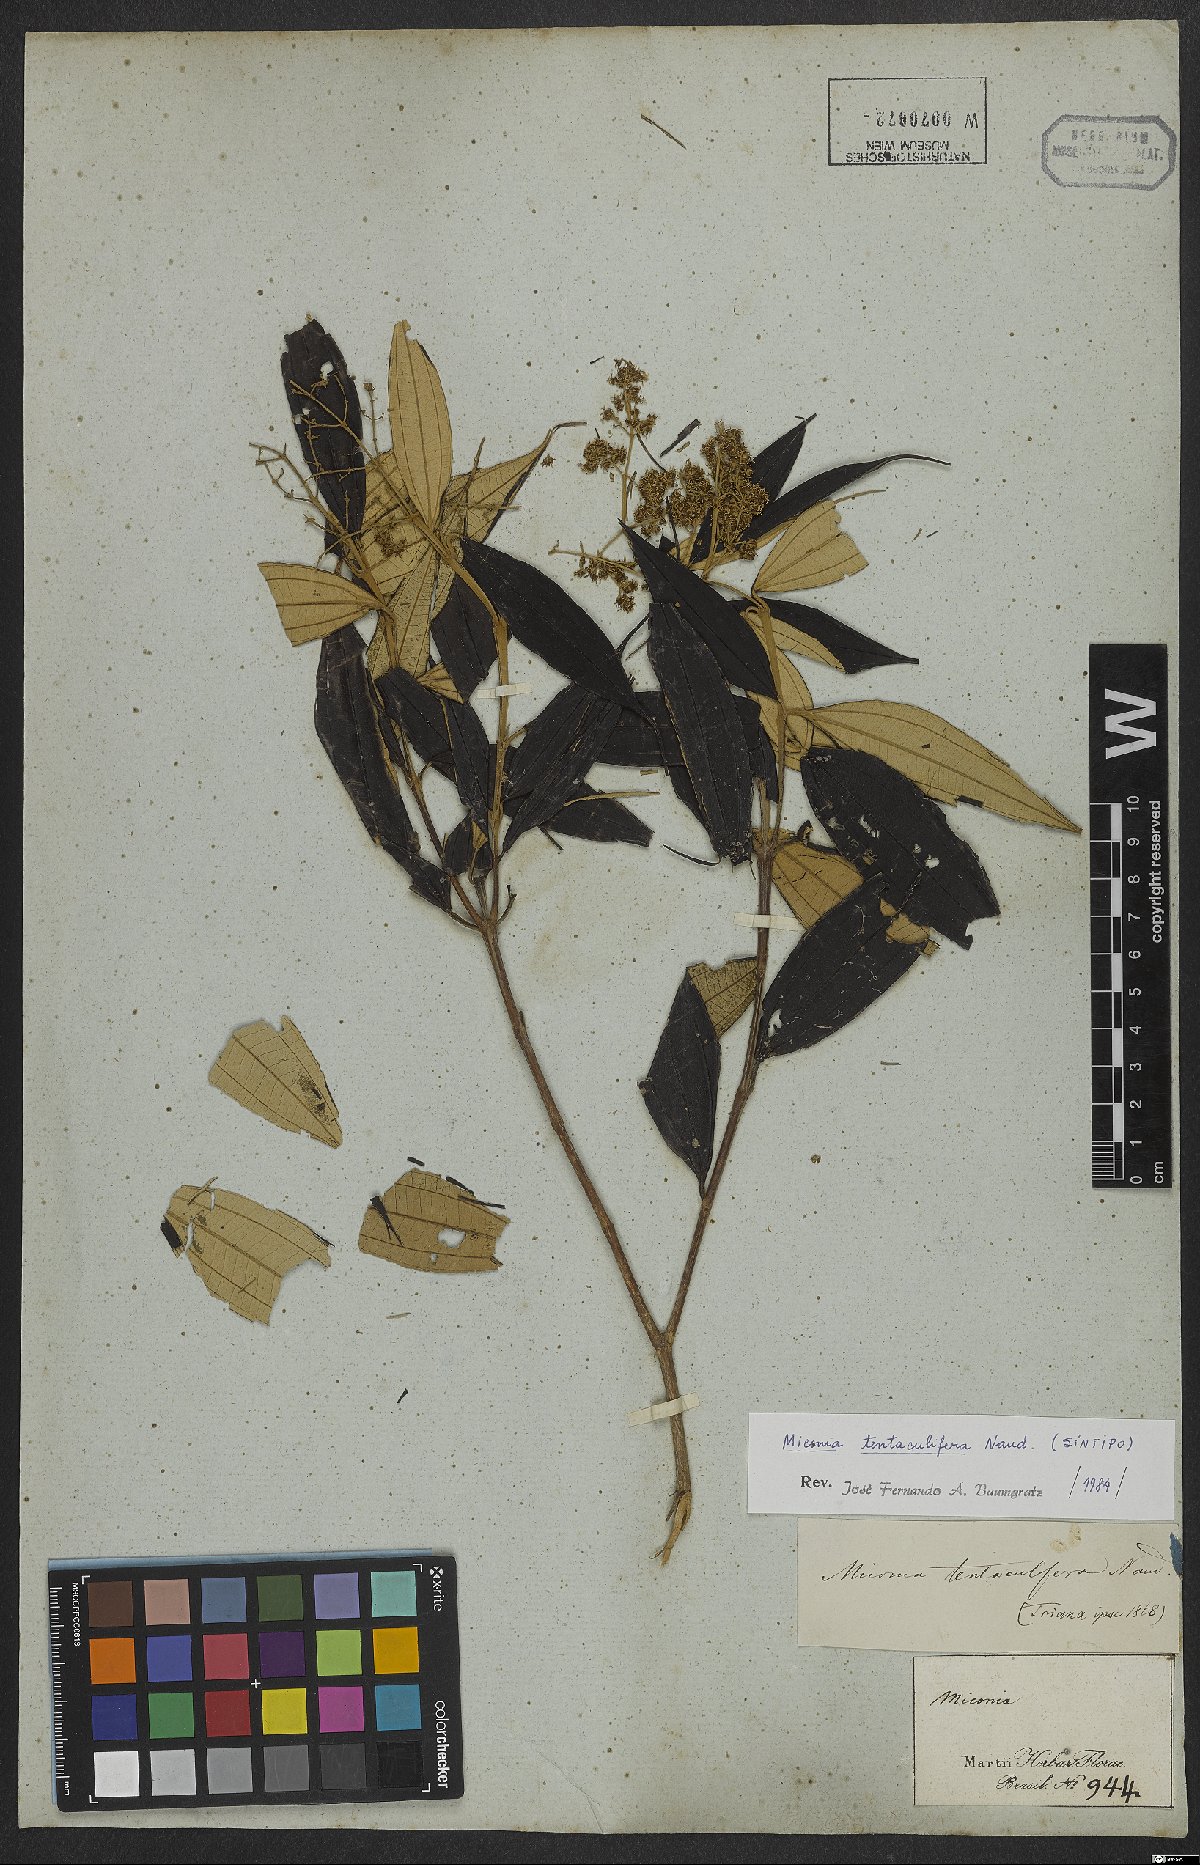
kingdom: Plantae
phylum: Tracheophyta
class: Magnoliopsida
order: Myrtales
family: Melastomataceae
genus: Miconia
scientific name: Miconia tentaculifera
